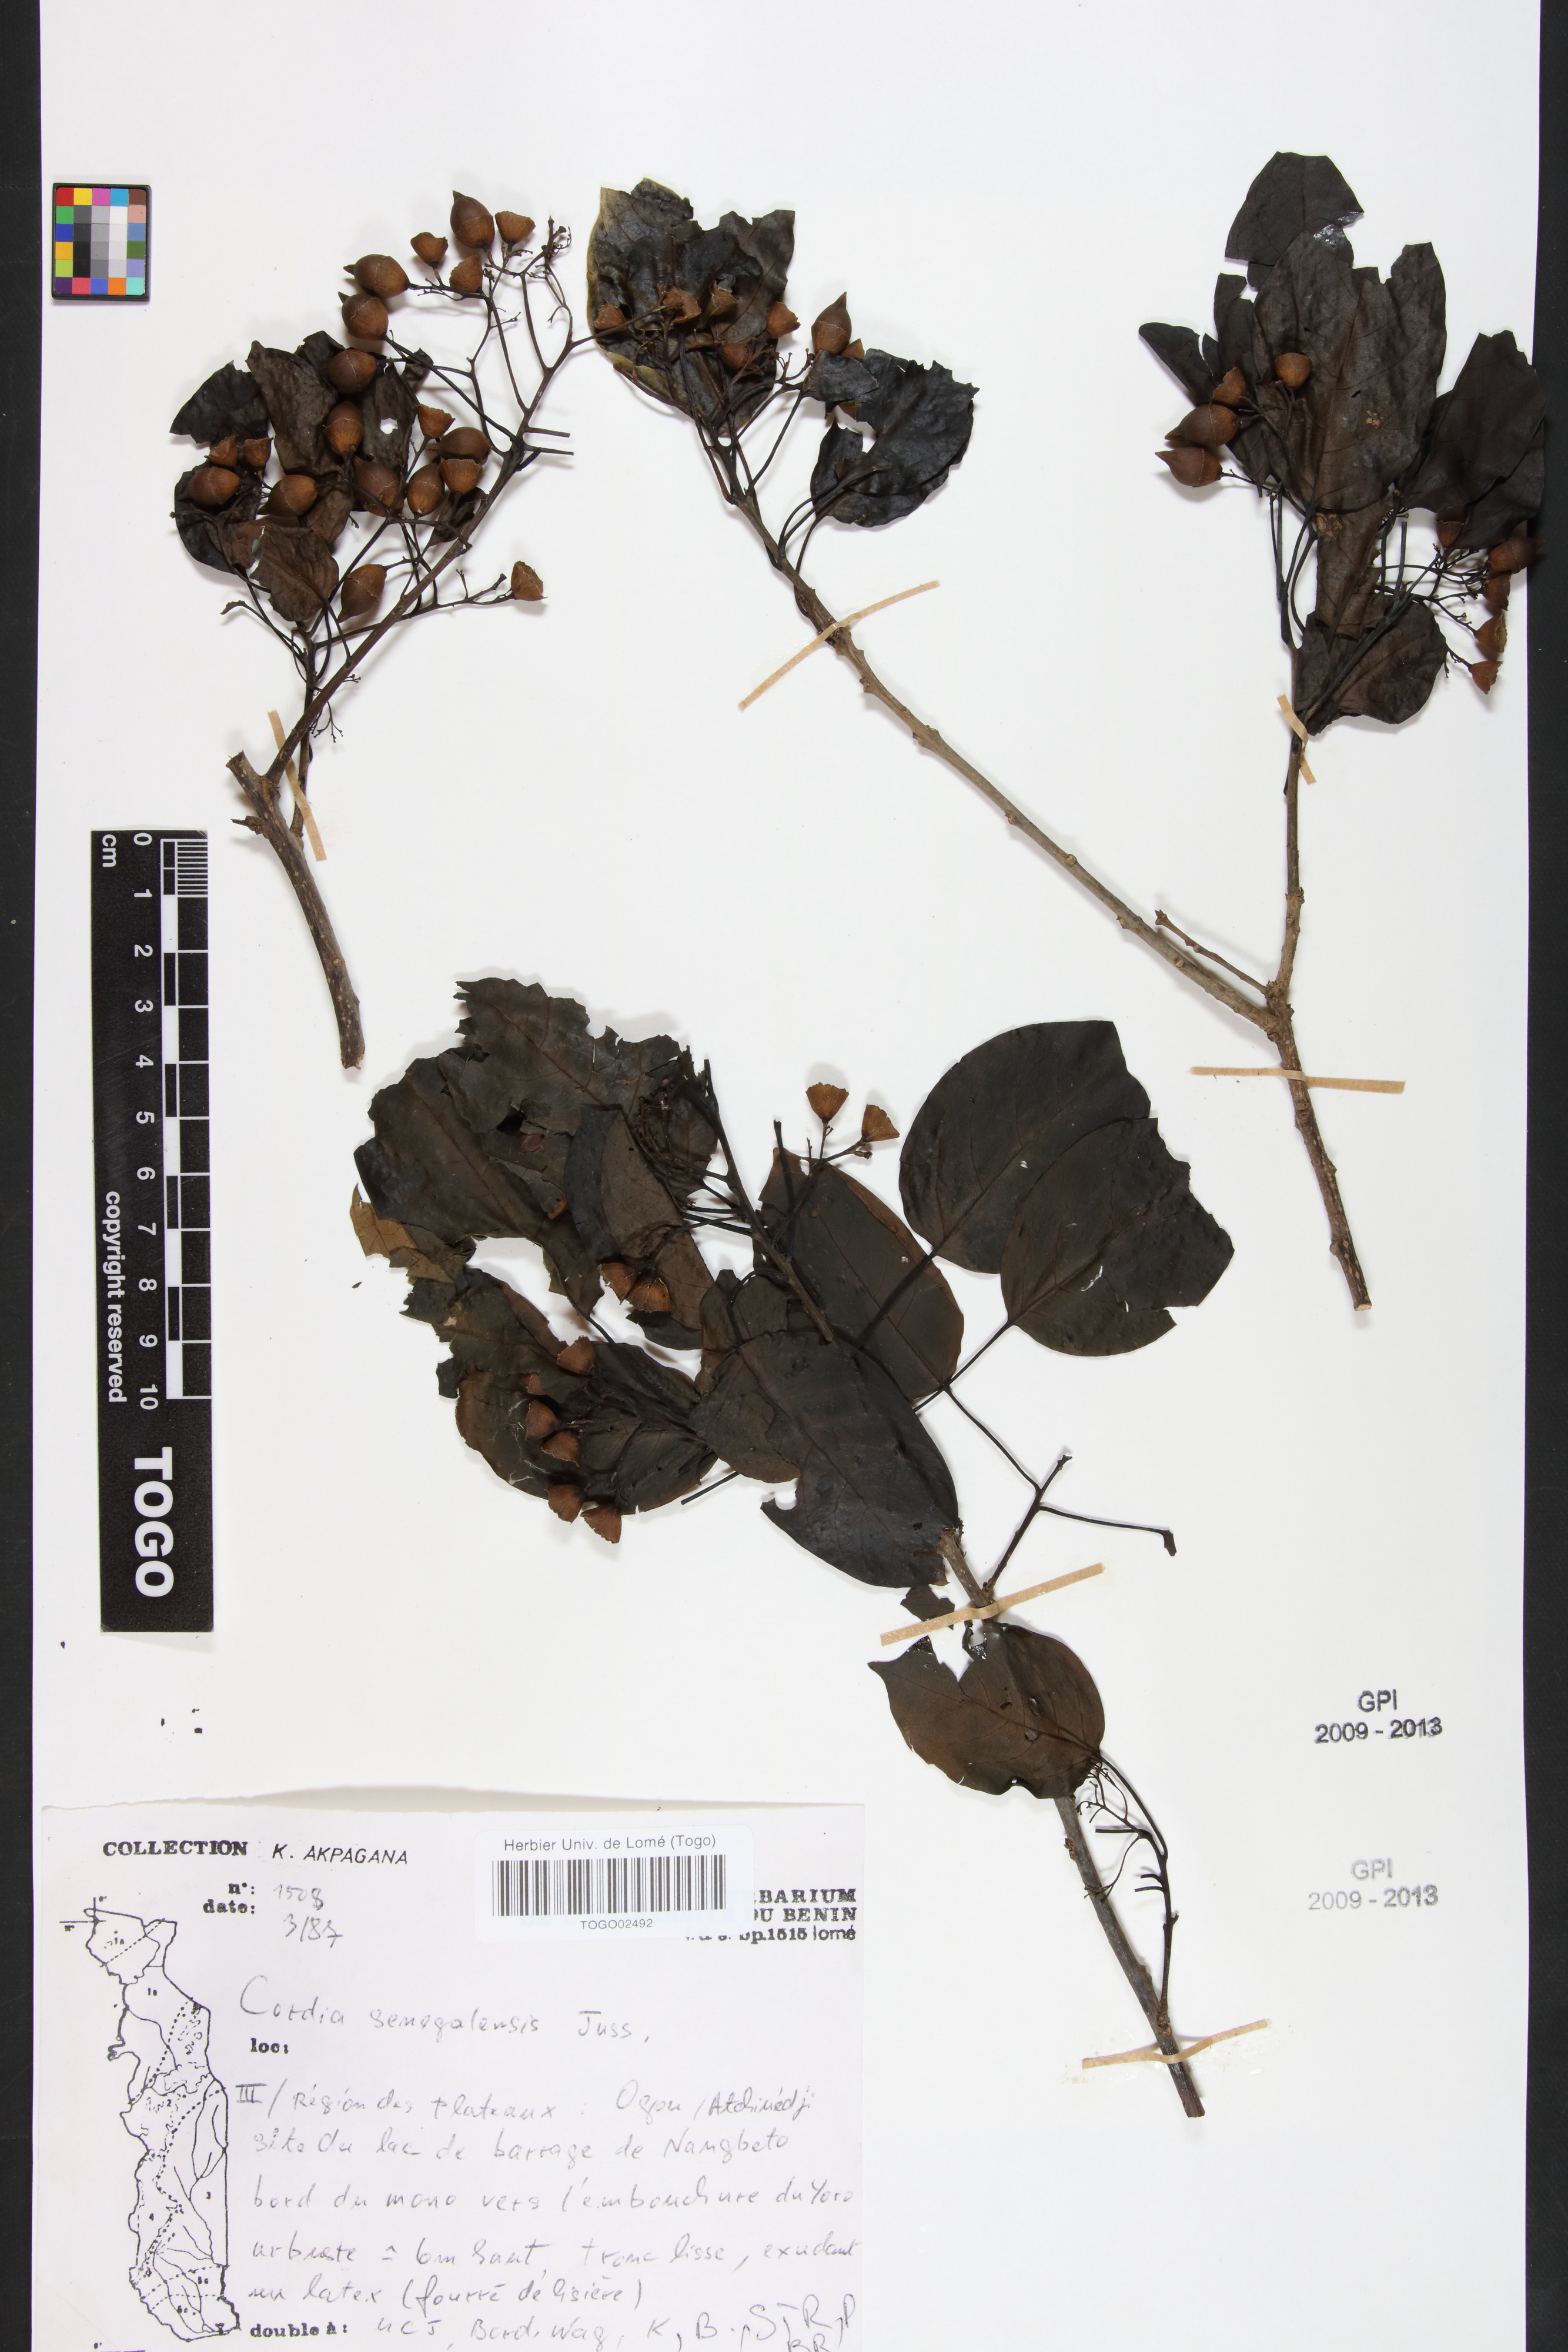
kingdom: Plantae
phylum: Tracheophyta
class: Magnoliopsida
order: Boraginales
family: Cordiaceae
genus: Cordia
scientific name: Cordia senegalensis
